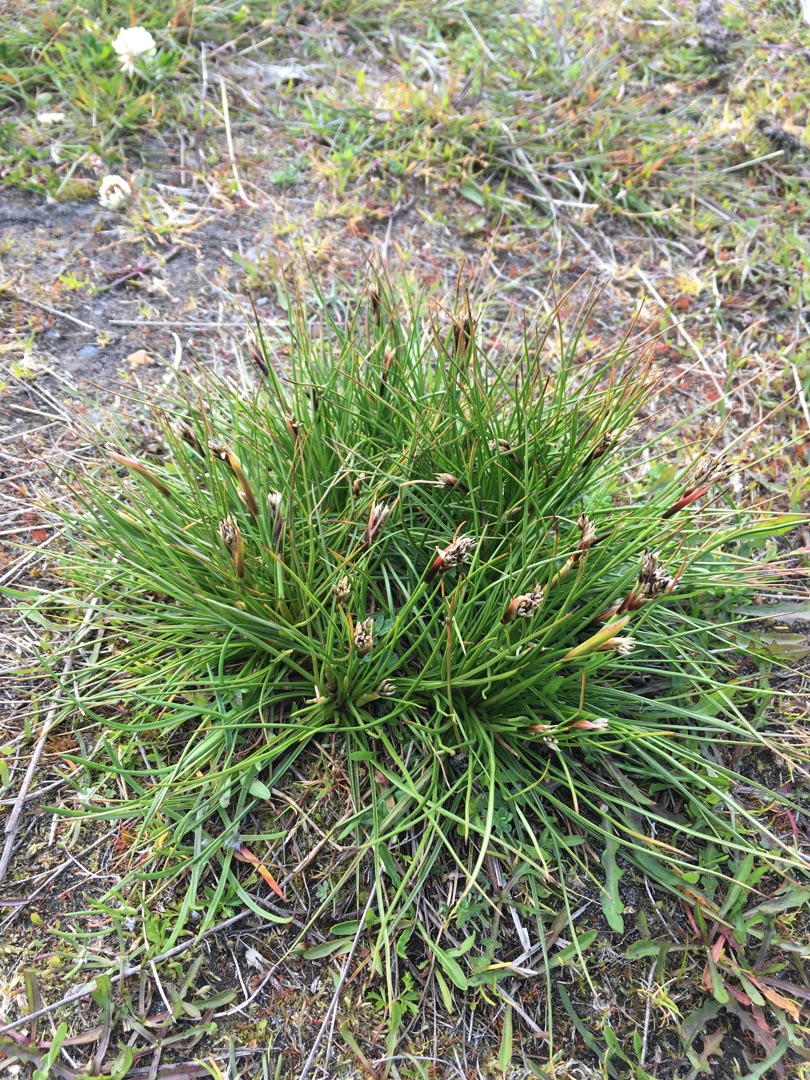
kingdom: Plantae
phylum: Tracheophyta
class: Liliopsida
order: Poales
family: Juncaceae
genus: Juncus
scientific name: Juncus squarrosus
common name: Børste-siv
